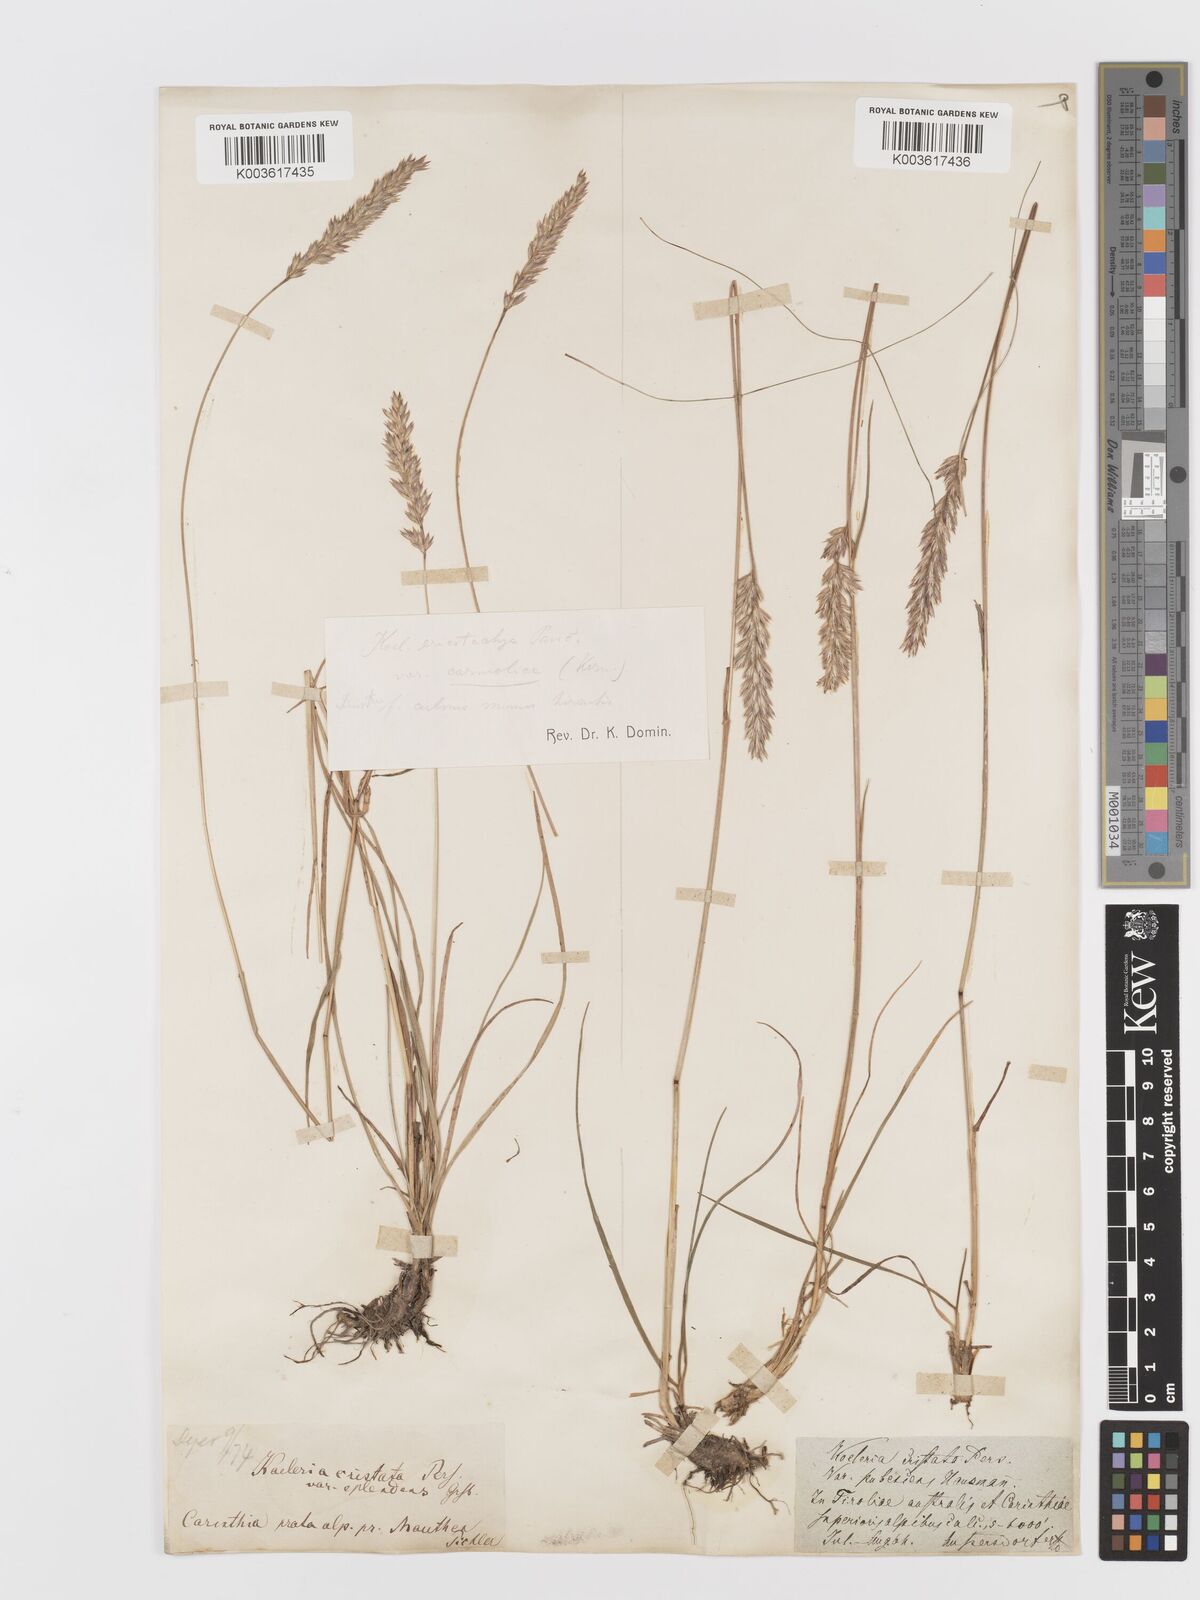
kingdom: Plantae
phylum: Tracheophyta
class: Liliopsida
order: Poales
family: Poaceae
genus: Koeleria
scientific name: Koeleria eriostachya
